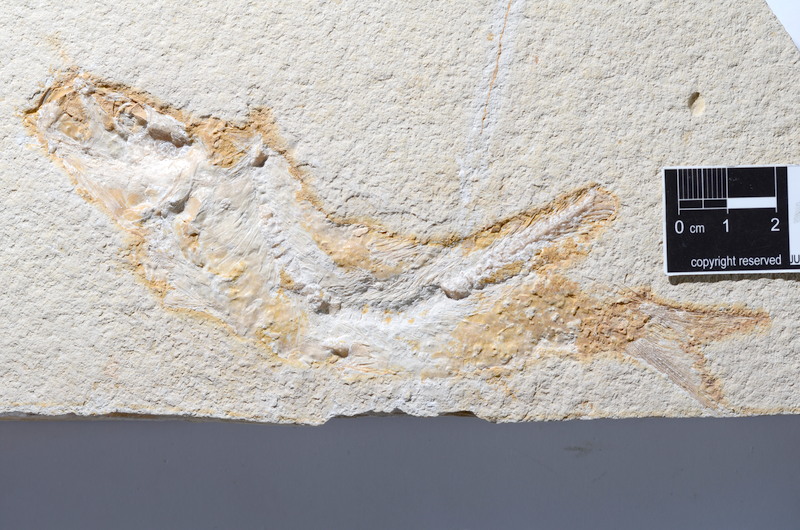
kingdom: Animalia
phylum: Chordata
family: Ascalaboidae
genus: Tharsis
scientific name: Tharsis dubius
